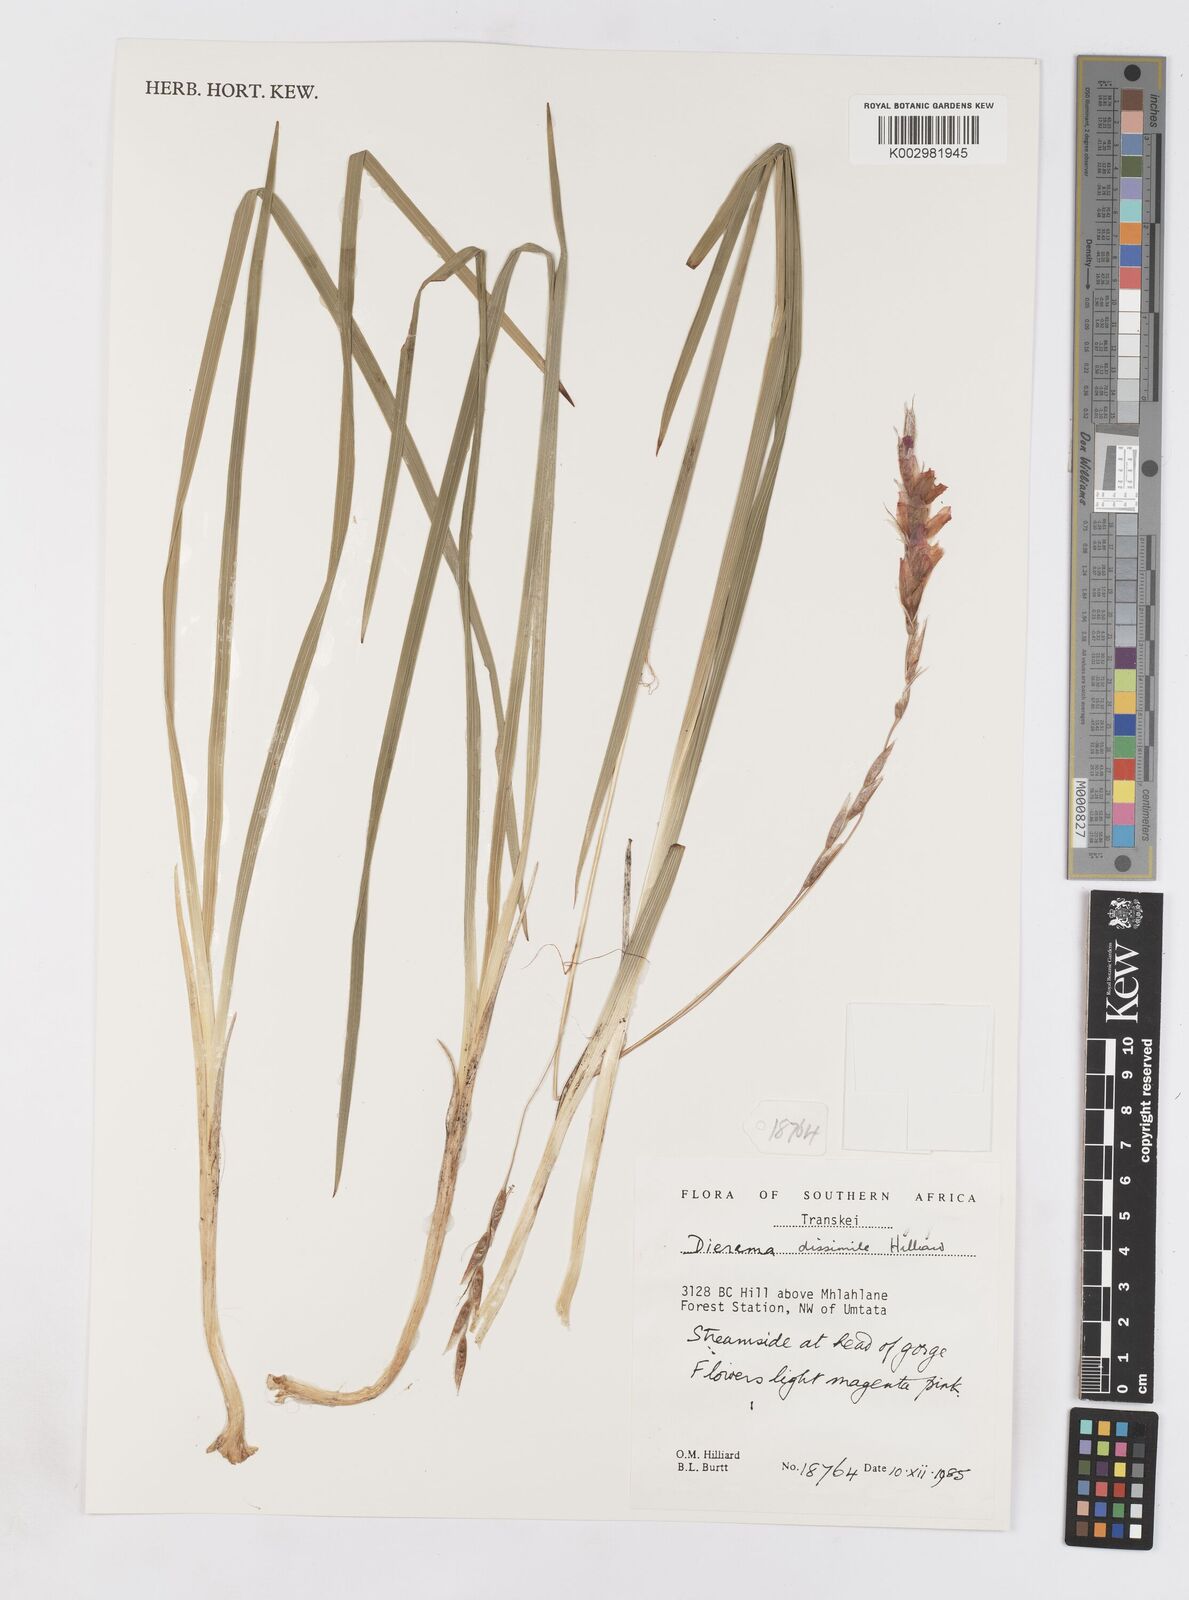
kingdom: Plantae
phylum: Tracheophyta
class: Liliopsida
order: Asparagales
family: Iridaceae
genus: Dierama
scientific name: Dierama dissimile
